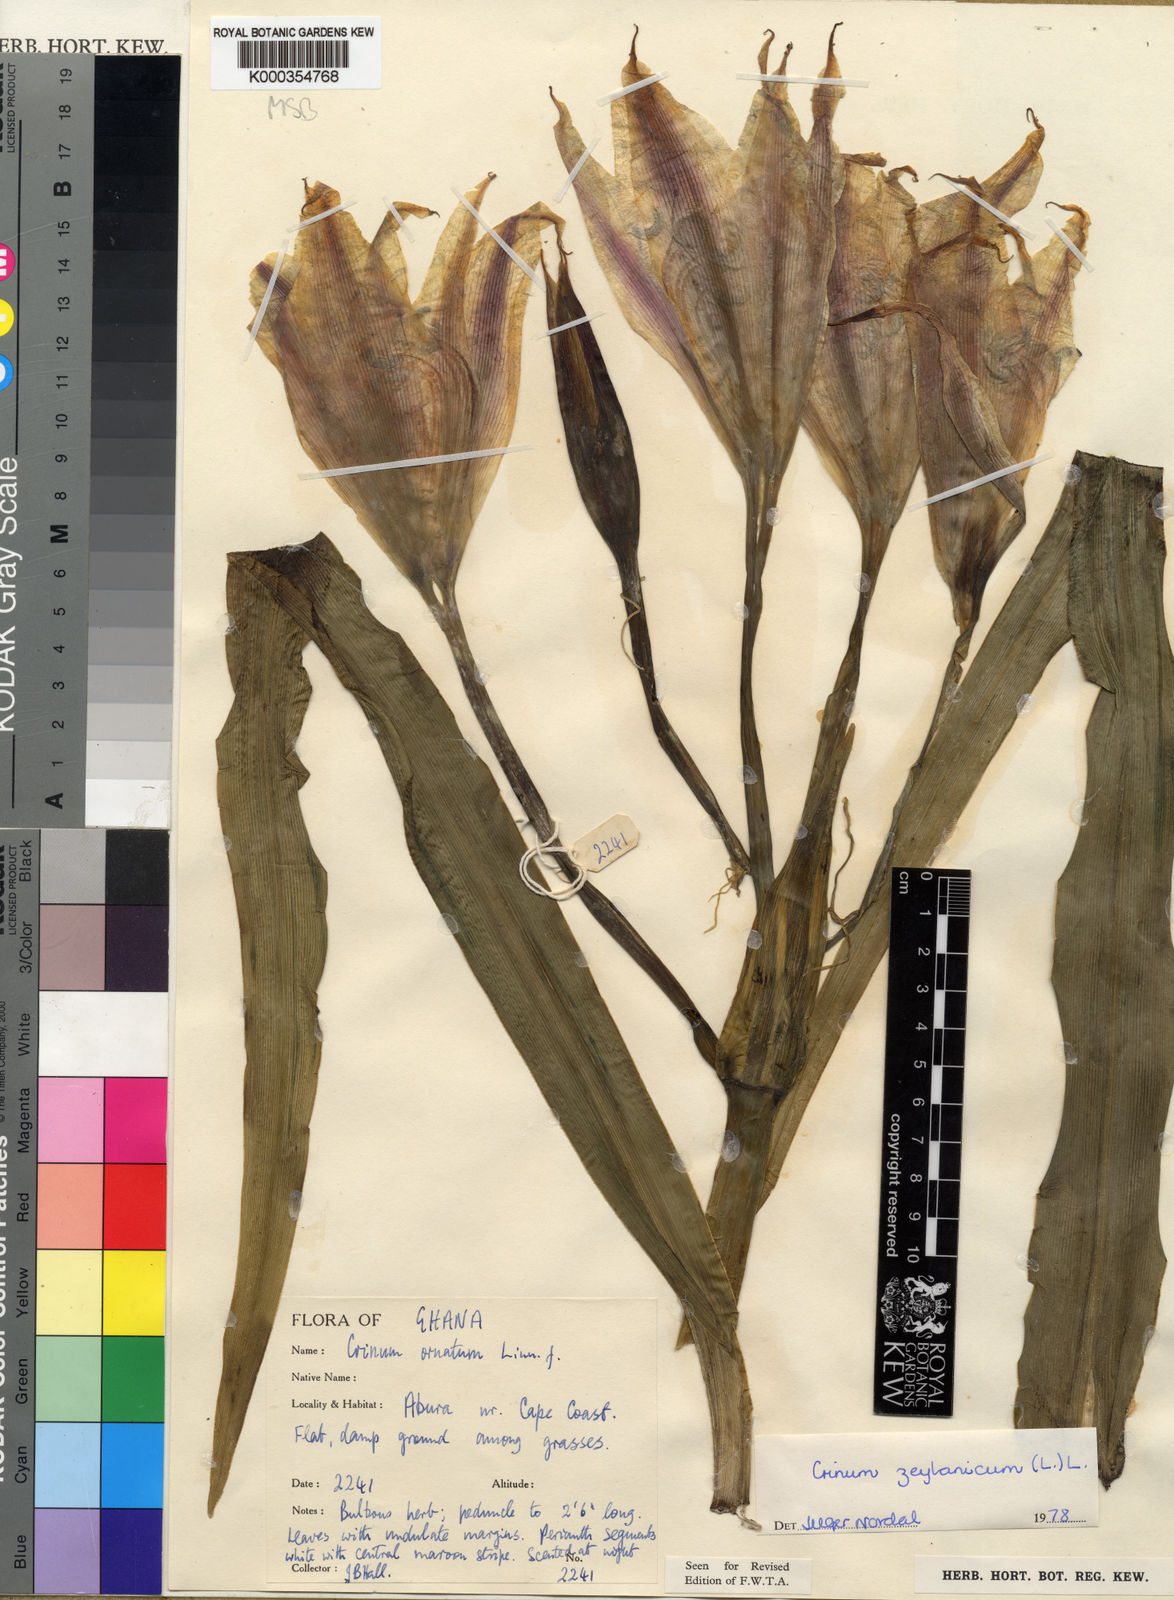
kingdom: Plantae
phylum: Tracheophyta
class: Liliopsida
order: Asparagales
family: Amaryllidaceae
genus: Crinum
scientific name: Crinum zeylanicum
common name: Ceylon swamplily
